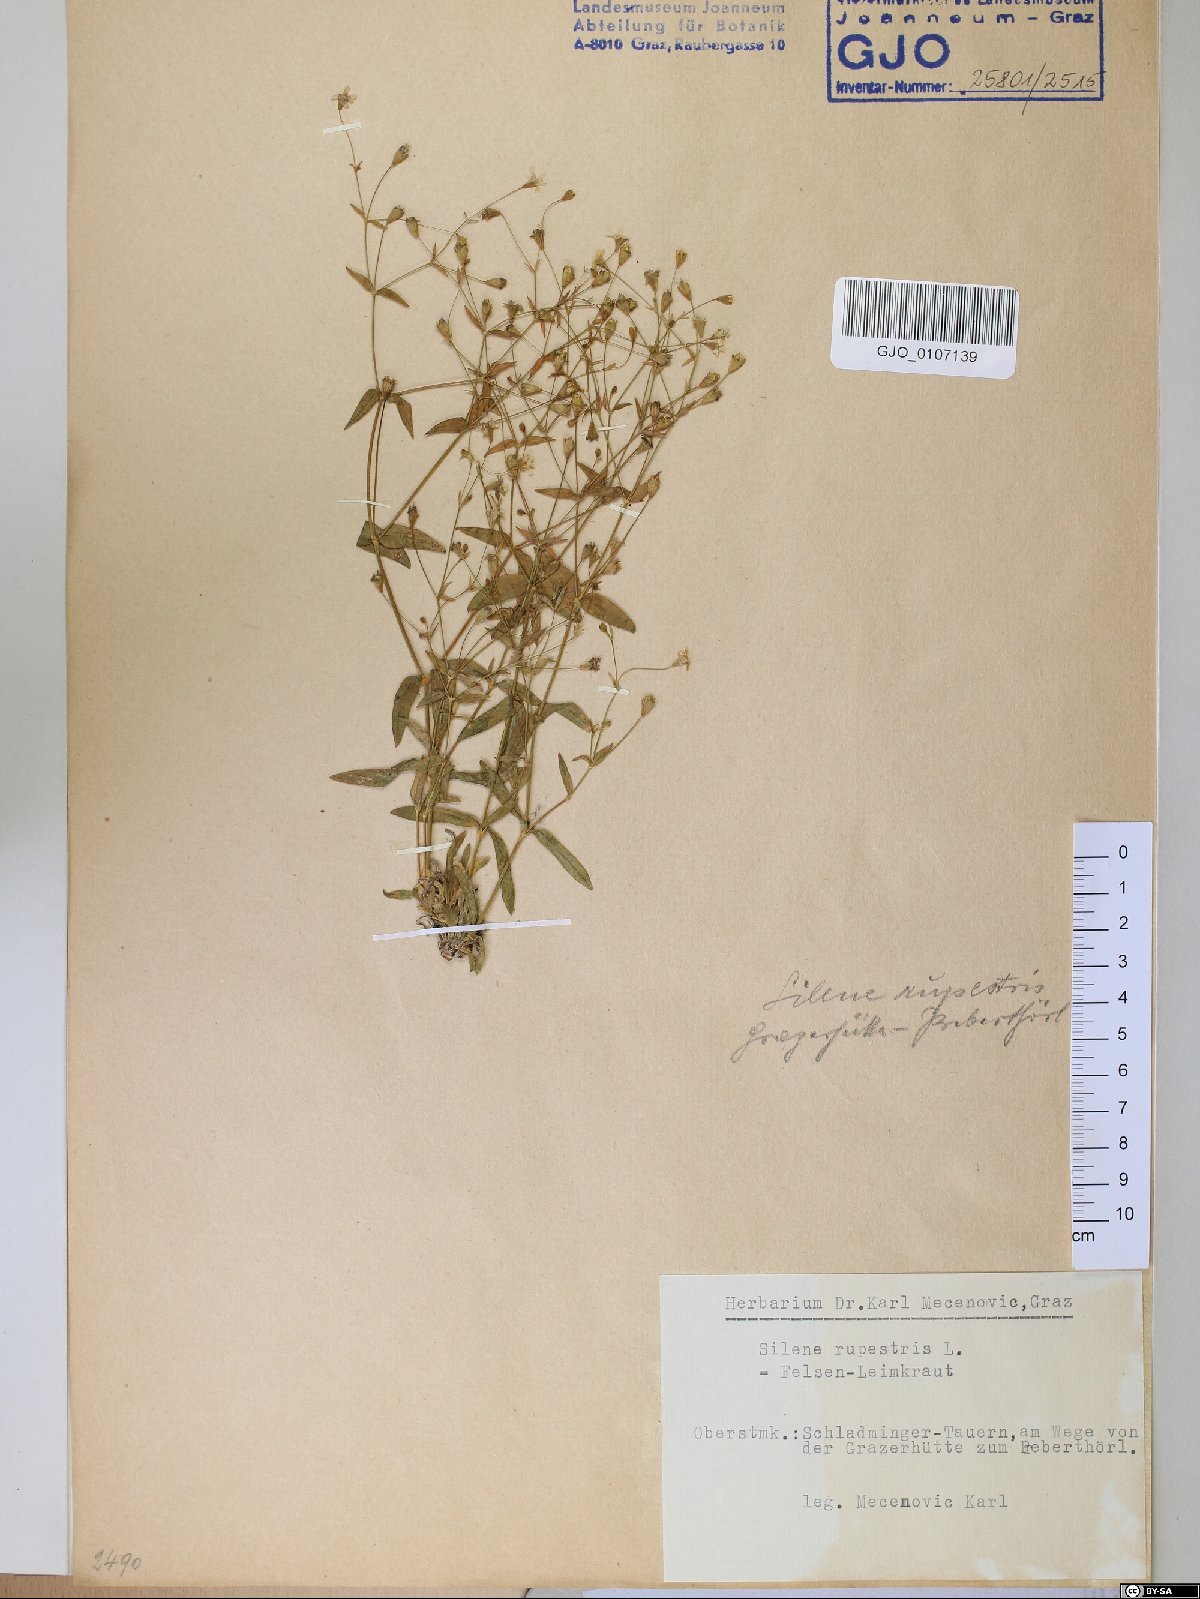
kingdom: Plantae
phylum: Tracheophyta
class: Magnoliopsida
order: Caryophyllales
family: Caryophyllaceae
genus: Atocion
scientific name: Atocion rupestre
